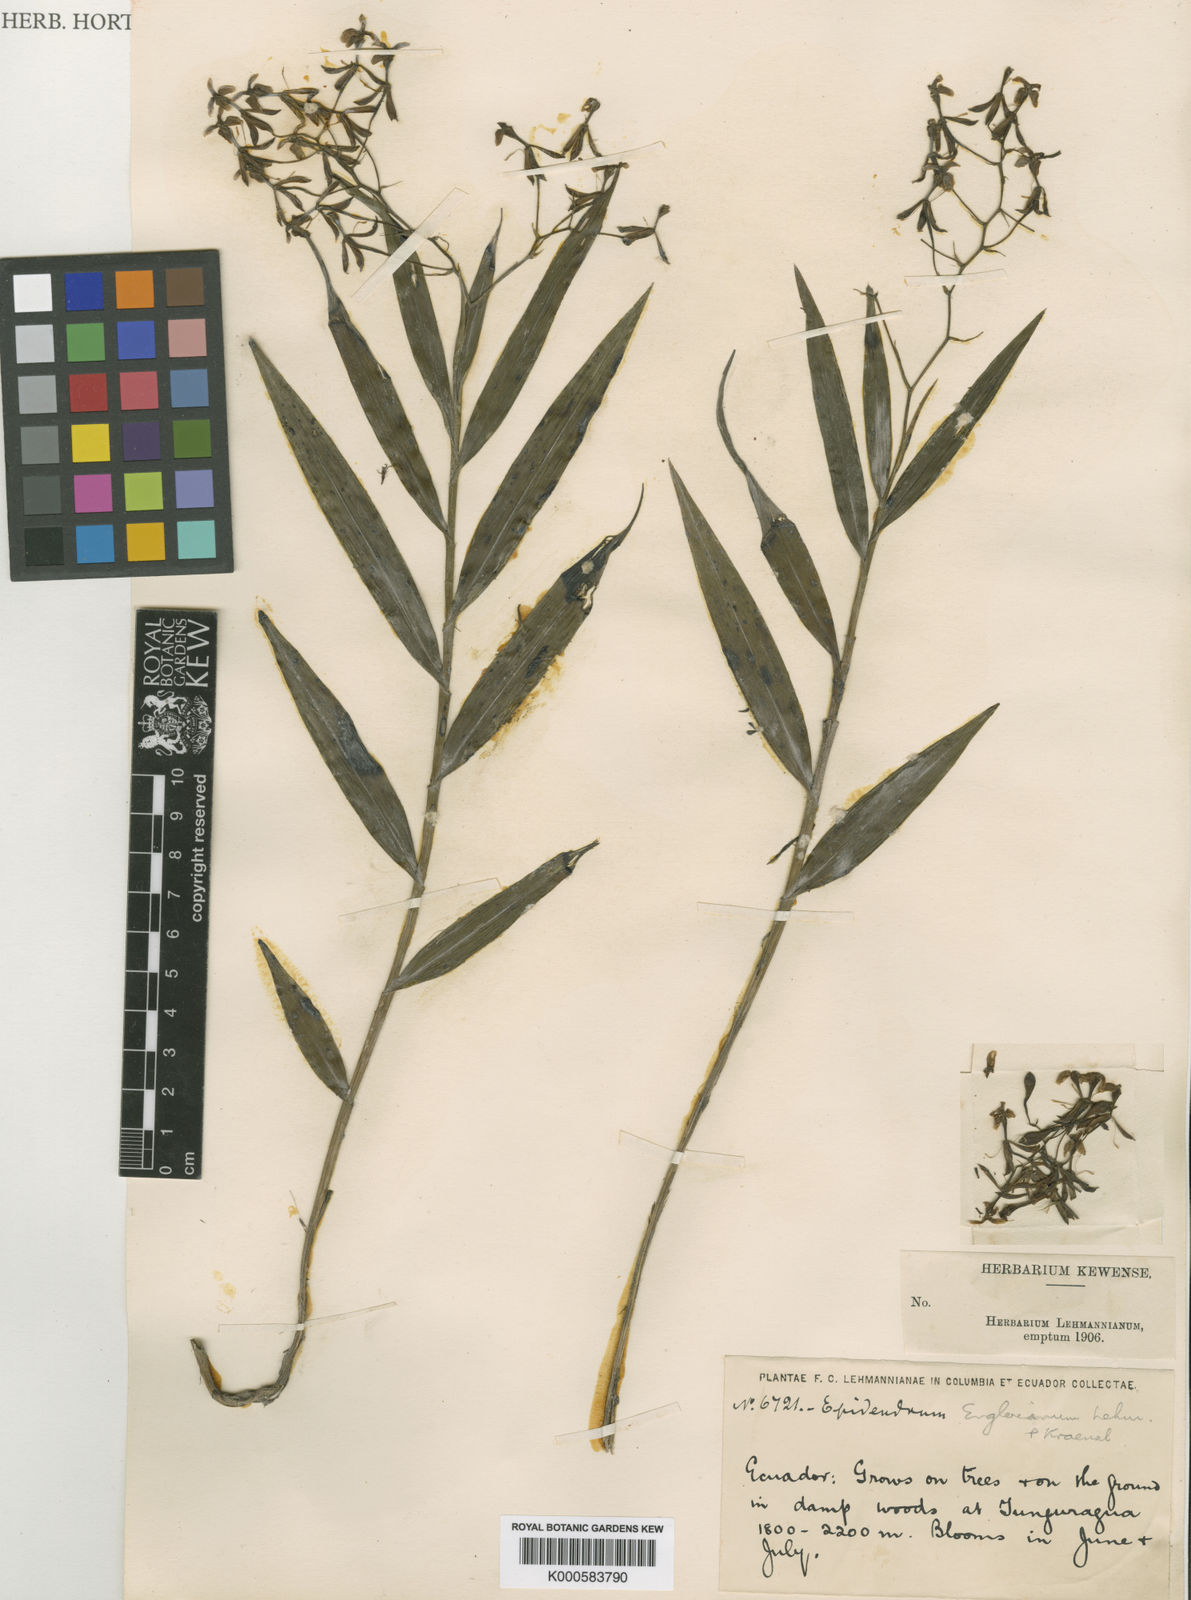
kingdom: Plantae
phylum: Tracheophyta
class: Liliopsida
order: Asparagales
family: Orchidaceae
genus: Epidendrum
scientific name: Epidendrum englerianum
